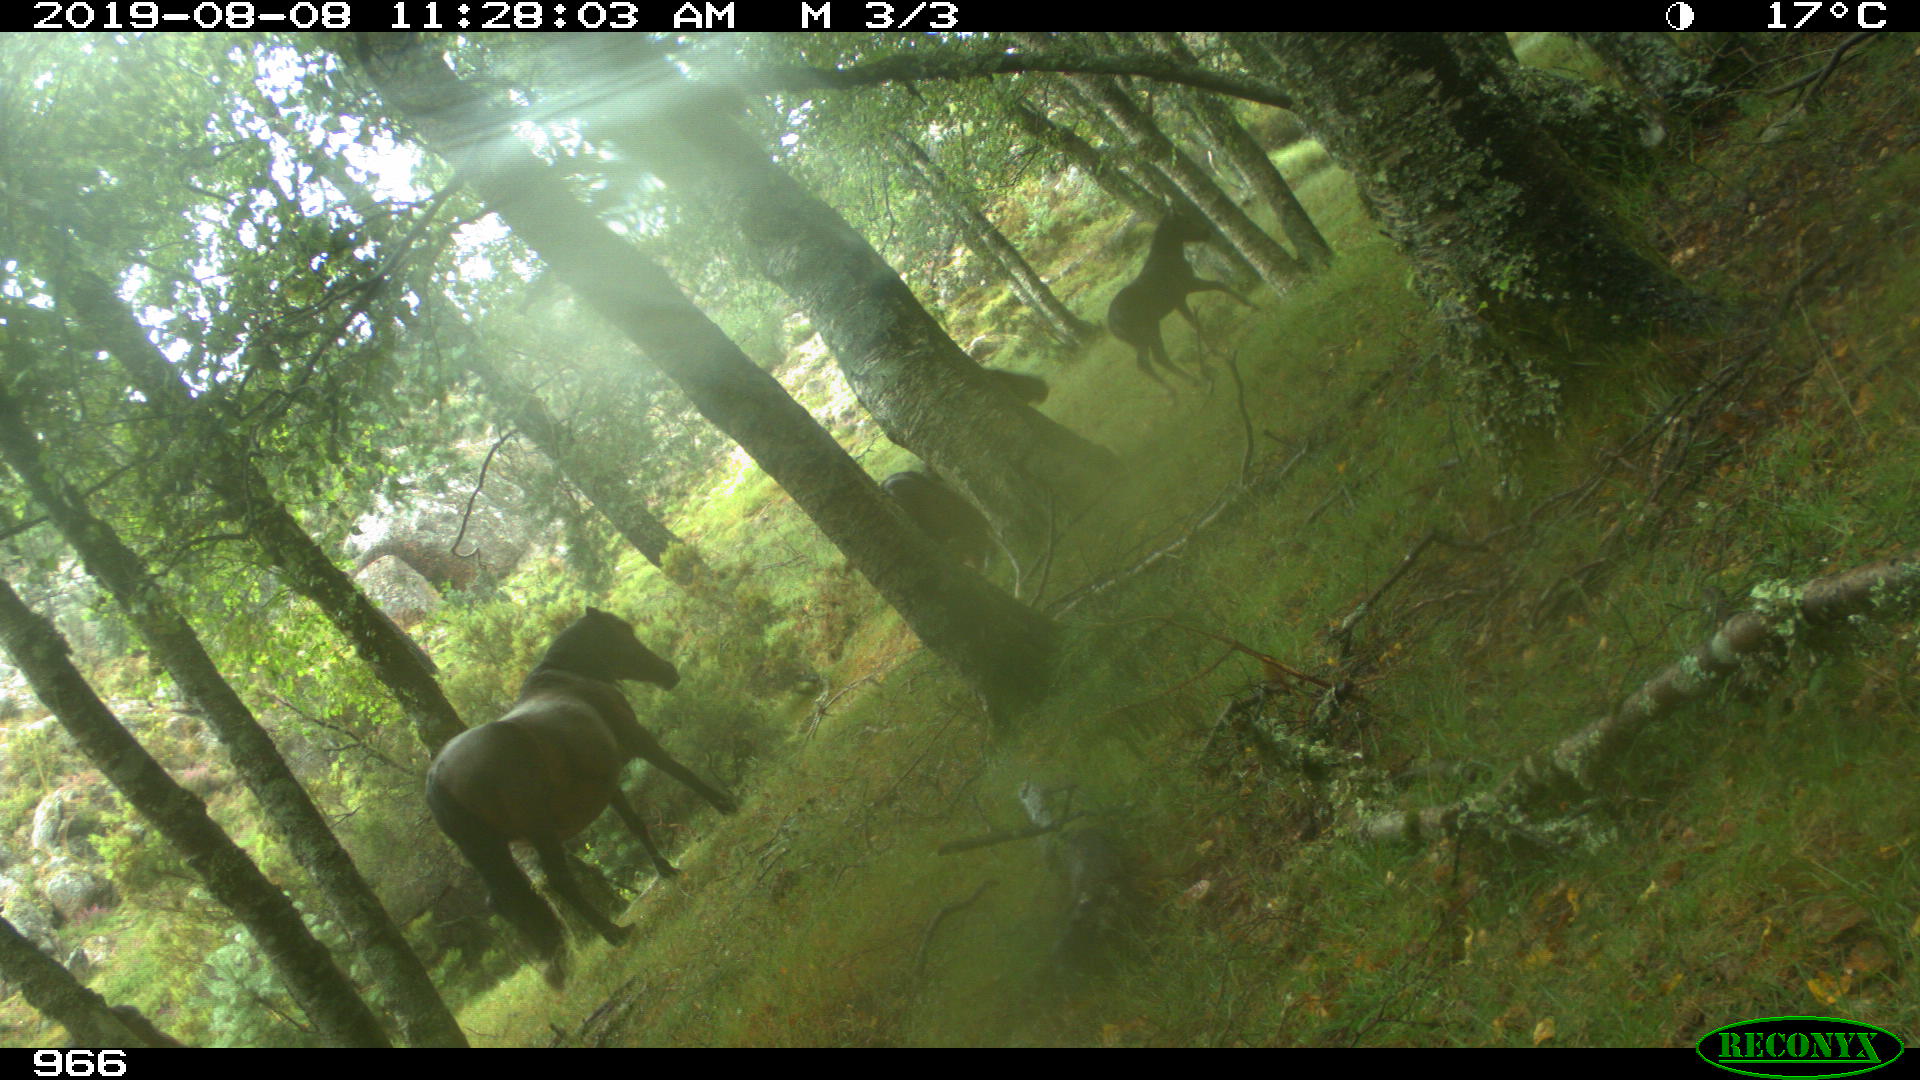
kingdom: Animalia
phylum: Chordata
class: Mammalia
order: Perissodactyla
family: Equidae
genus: Equus
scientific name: Equus caballus
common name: Horse
